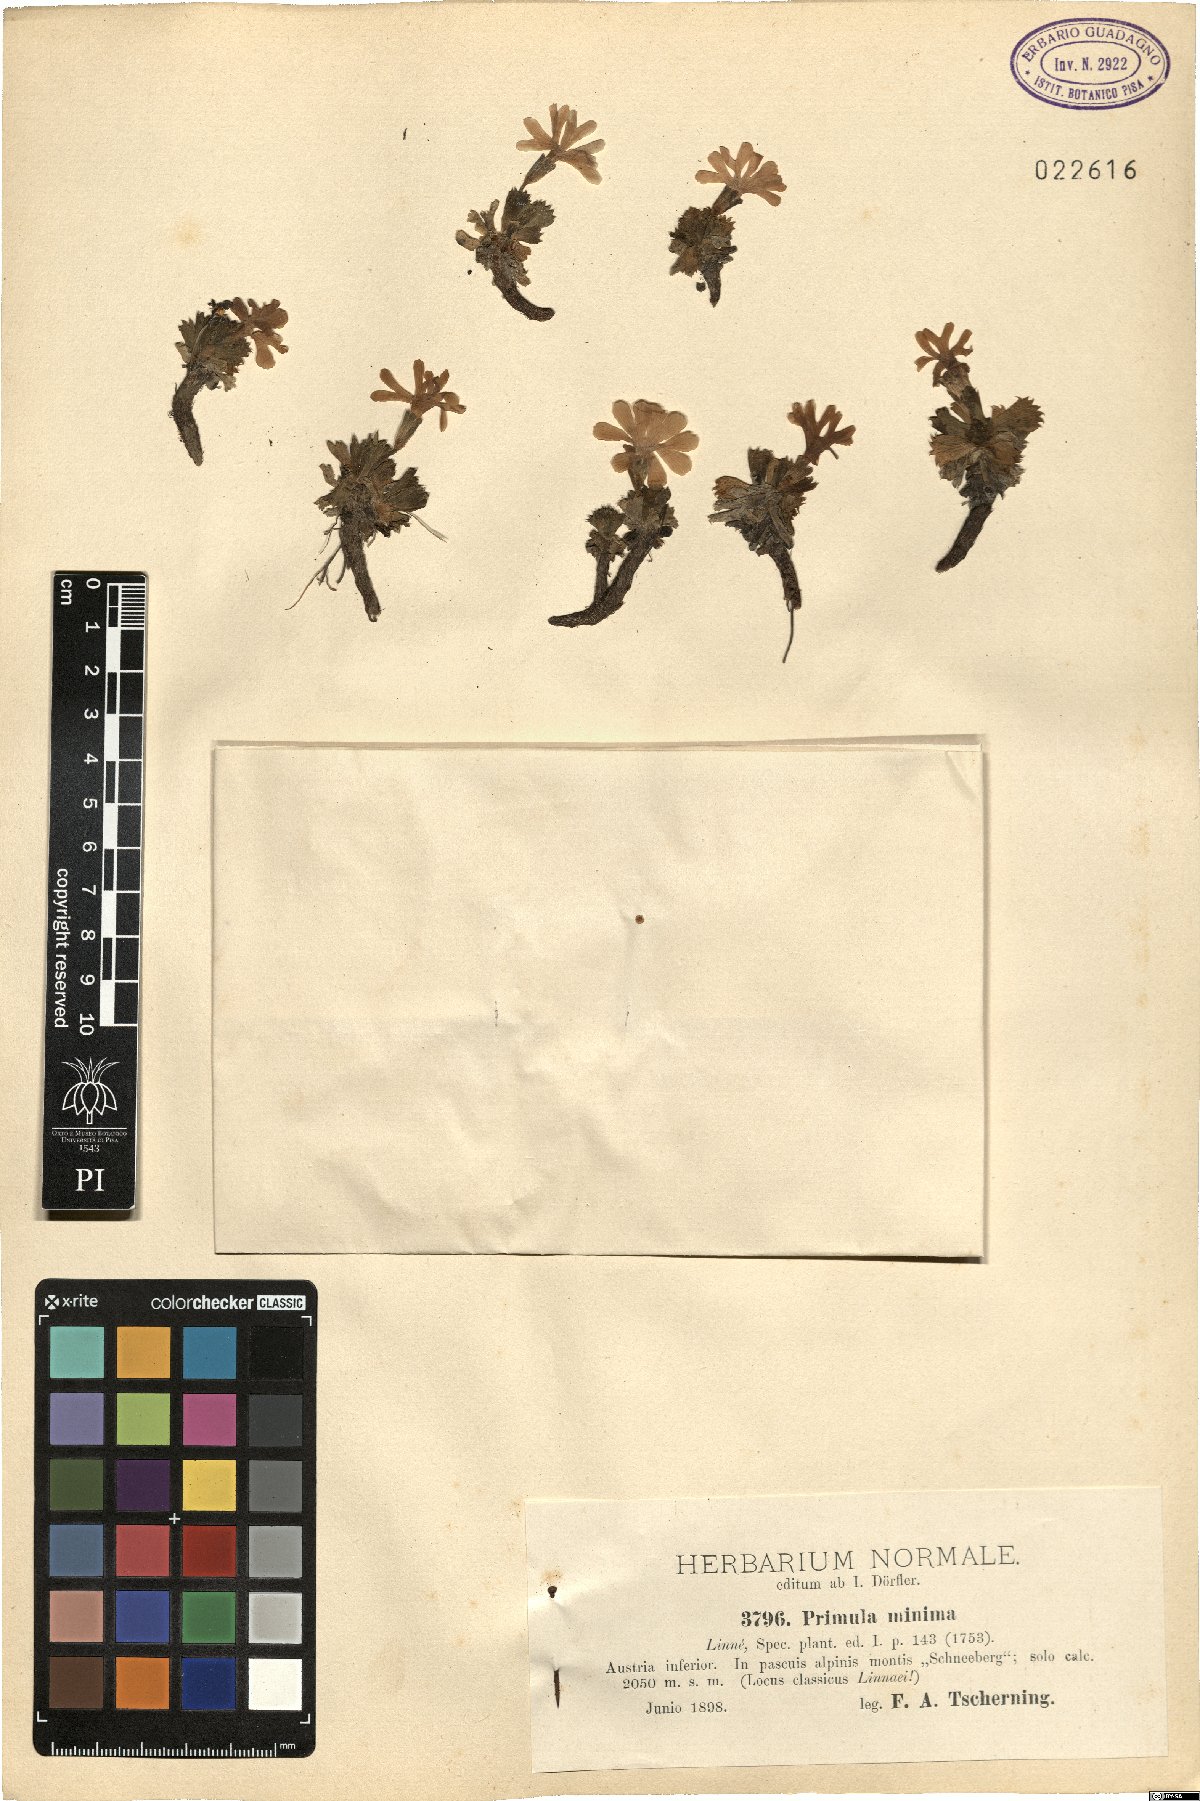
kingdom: Plantae
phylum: Tracheophyta
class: Magnoliopsida
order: Ericales
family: Primulaceae
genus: Primula
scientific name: Primula minima
